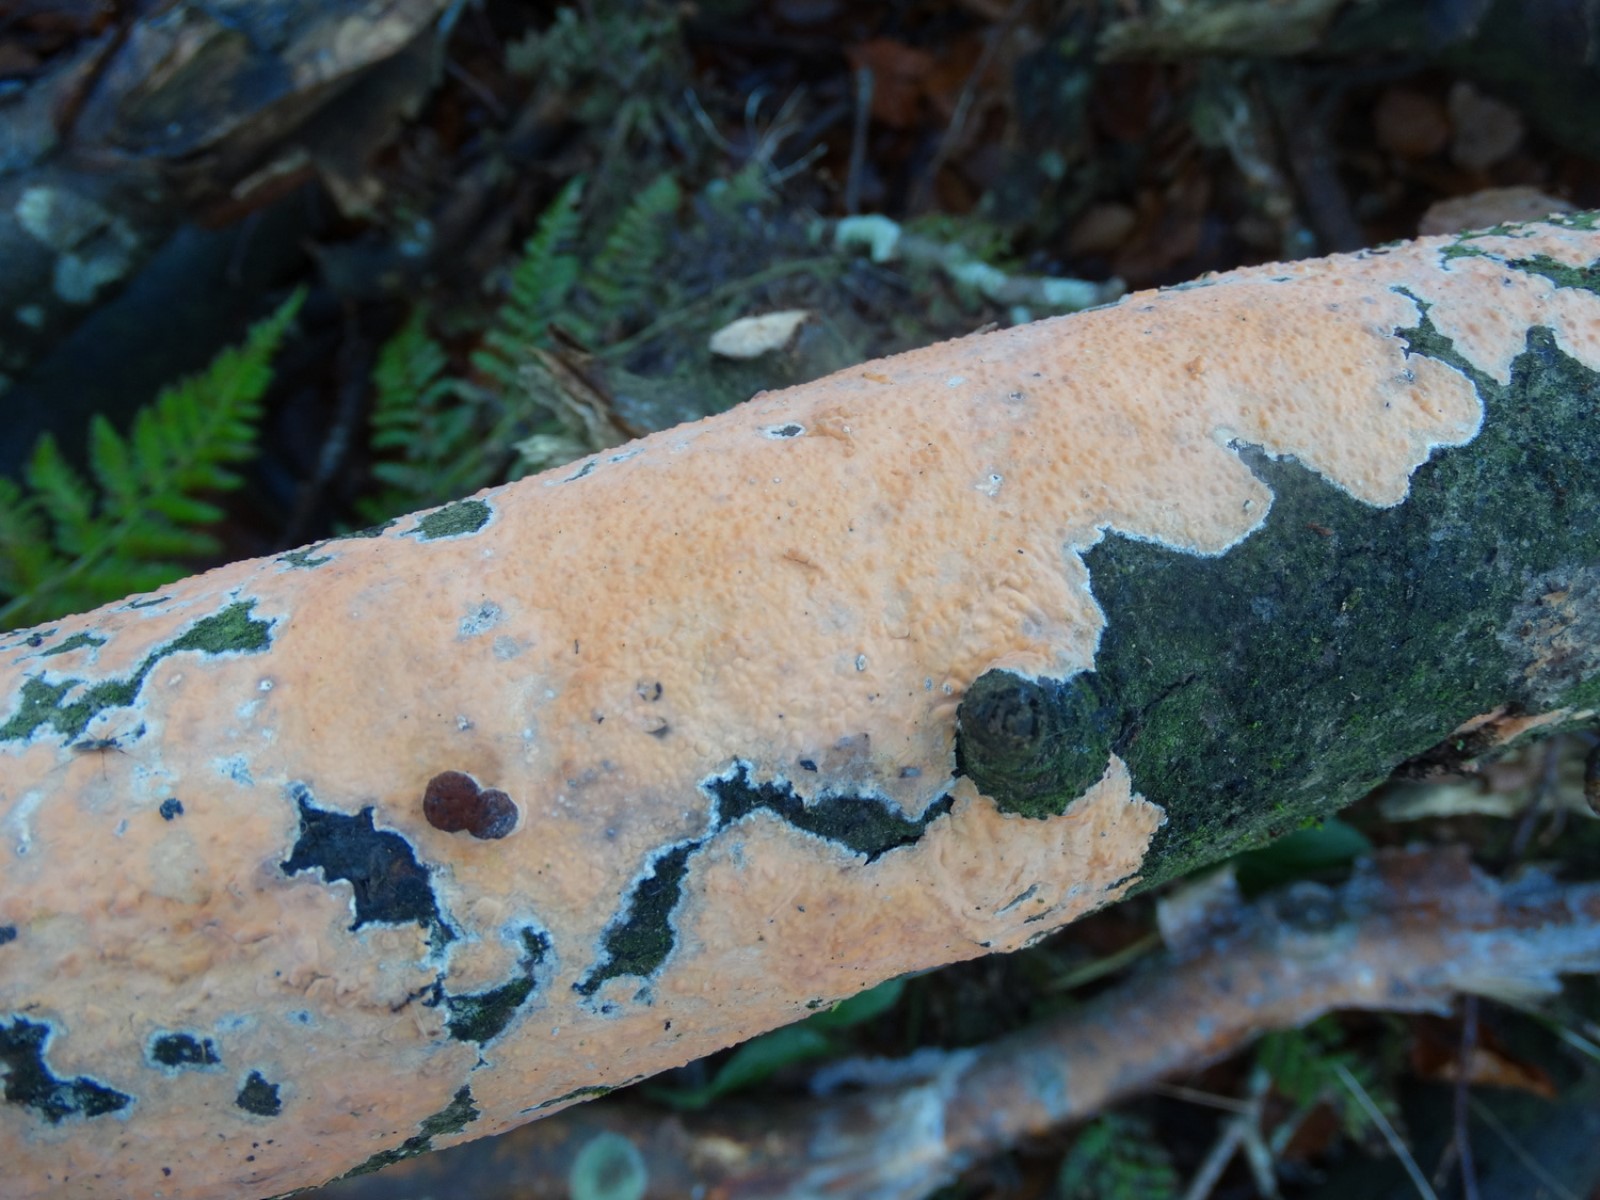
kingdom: Fungi
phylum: Basidiomycota
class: Agaricomycetes
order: Russulales
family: Peniophoraceae
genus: Peniophora
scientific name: Peniophora incarnata
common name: laksefarvet voksskind
